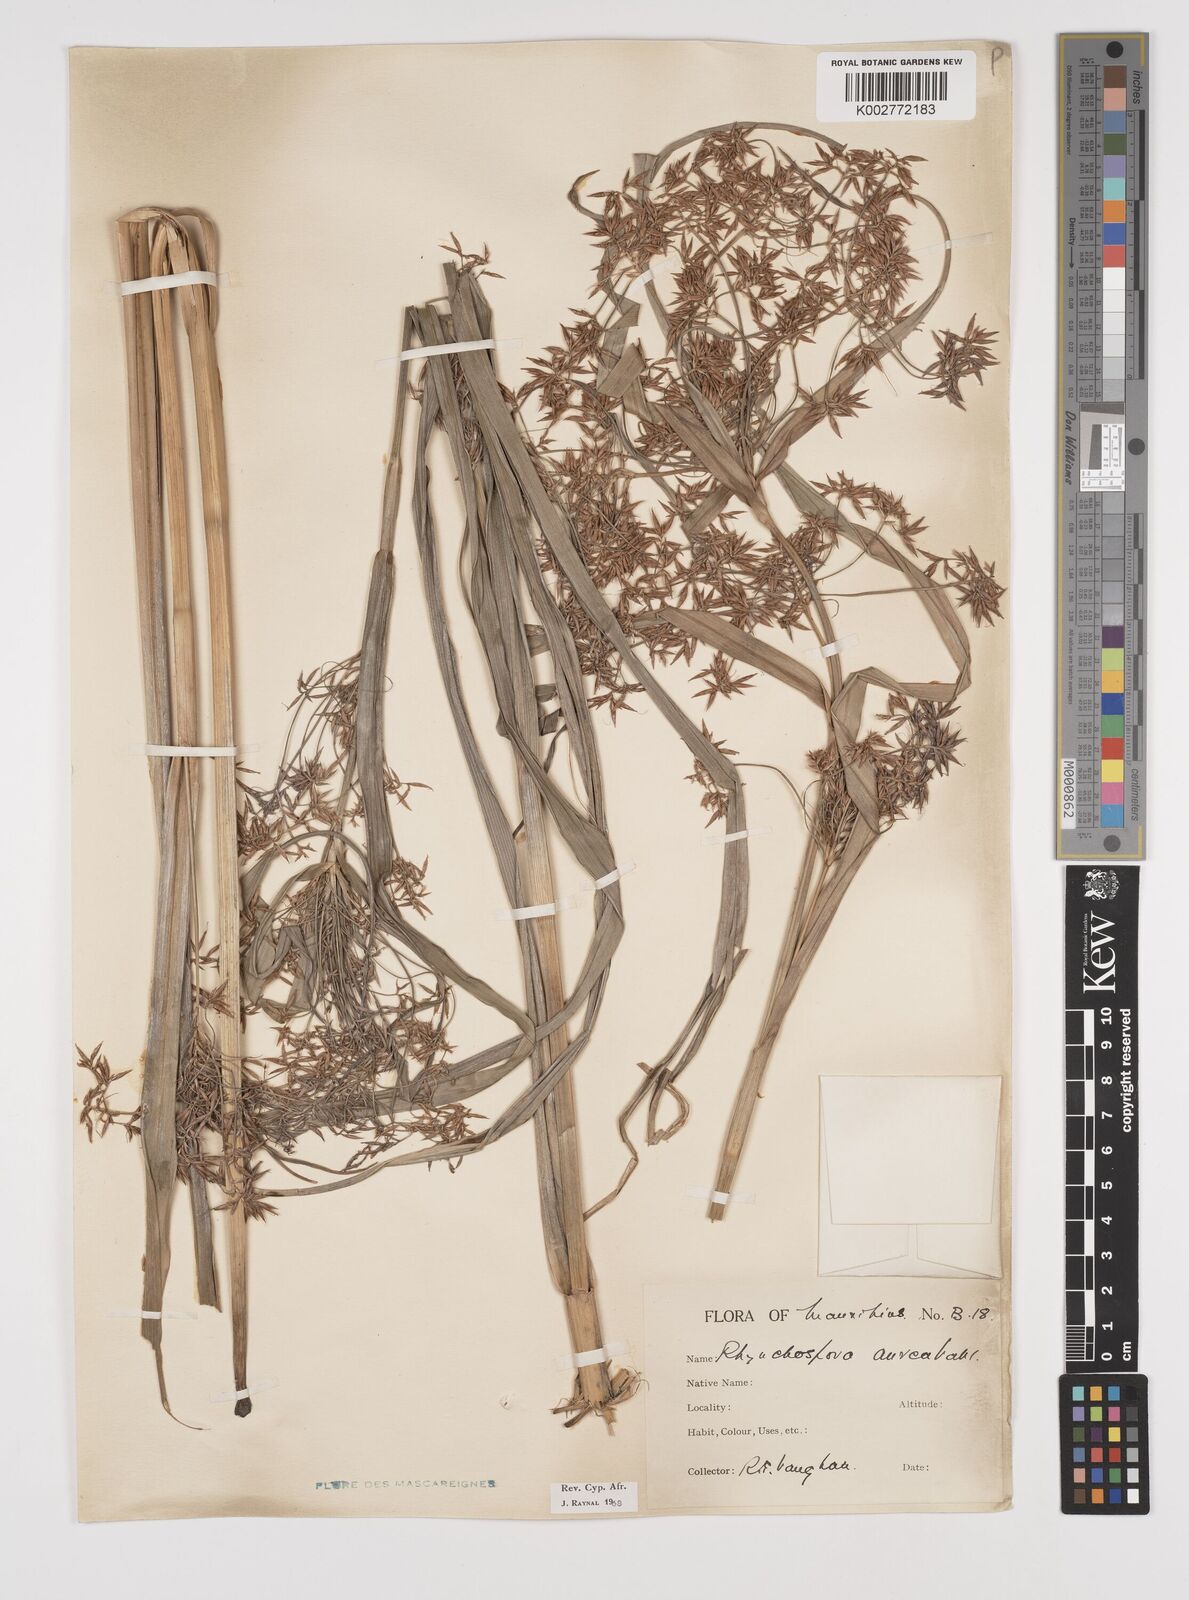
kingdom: Plantae
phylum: Tracheophyta
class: Liliopsida
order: Poales
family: Cyperaceae
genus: Rhynchospora
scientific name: Rhynchospora corymbosa
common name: Golden beak sedge
